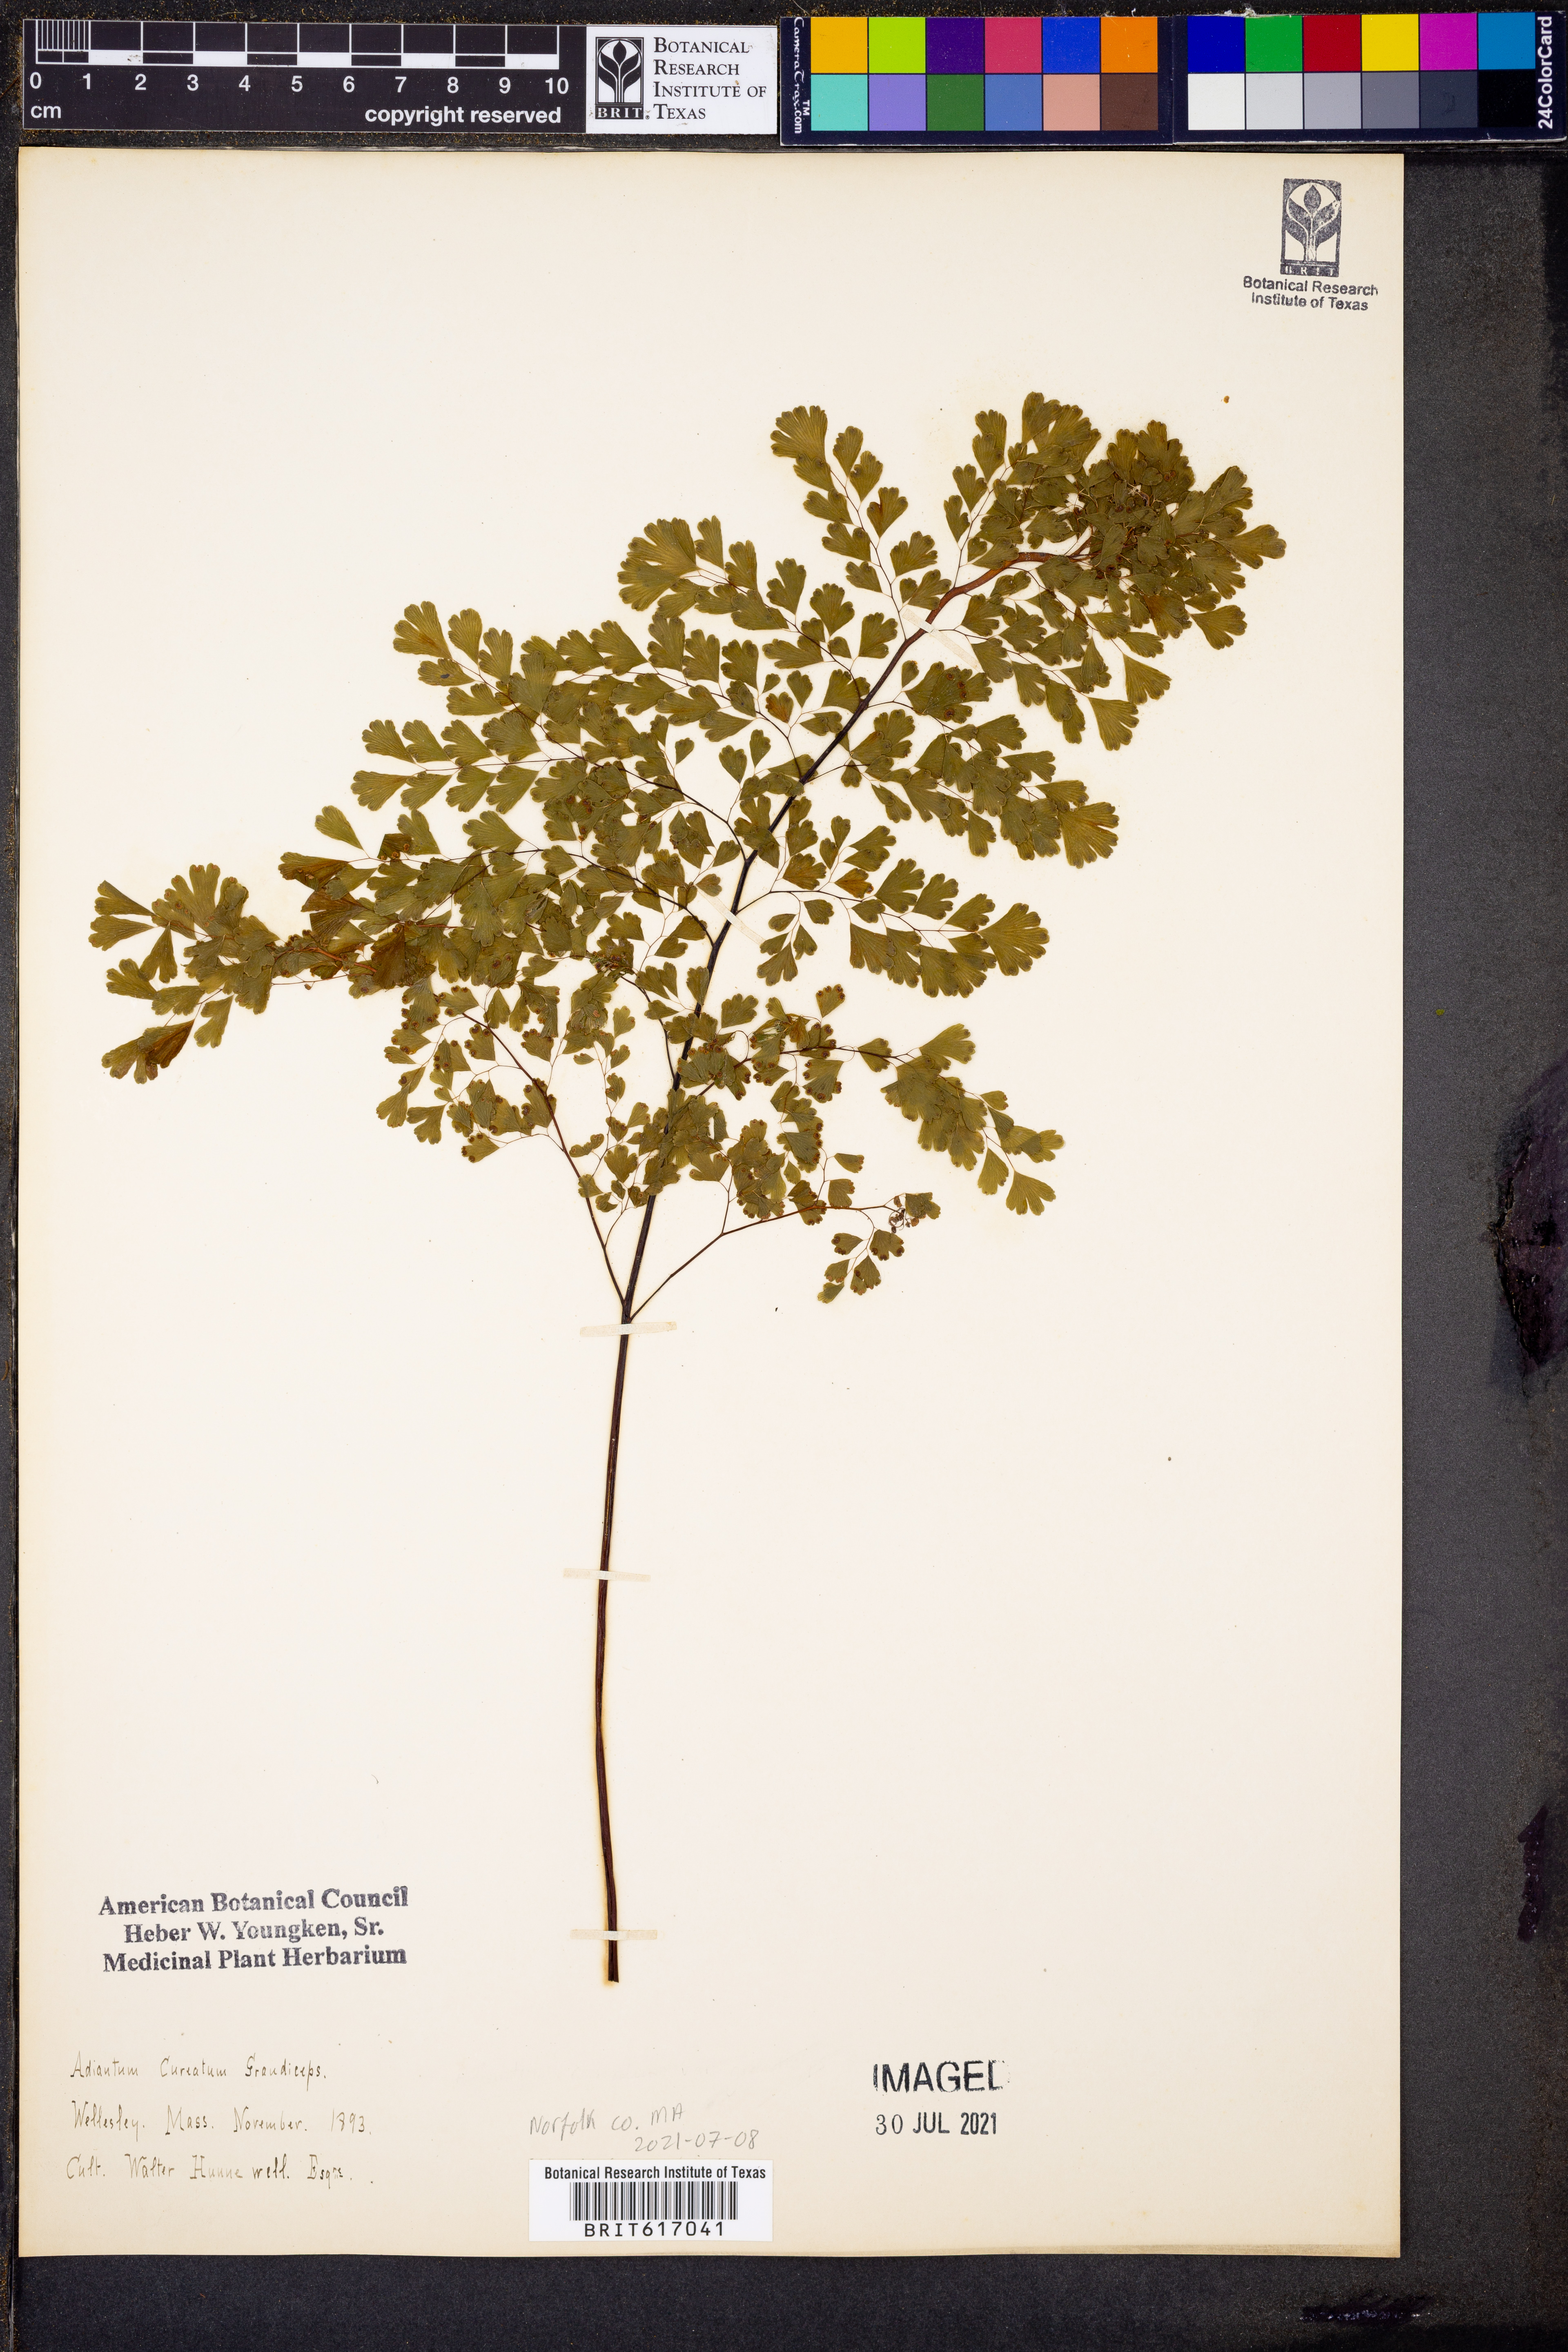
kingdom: Plantae
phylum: Tracheophyta
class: Polypodiopsida
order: Polypodiales
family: Pteridaceae
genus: Adiantum
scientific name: Adiantum raddianum
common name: Delta maidenhair fern
